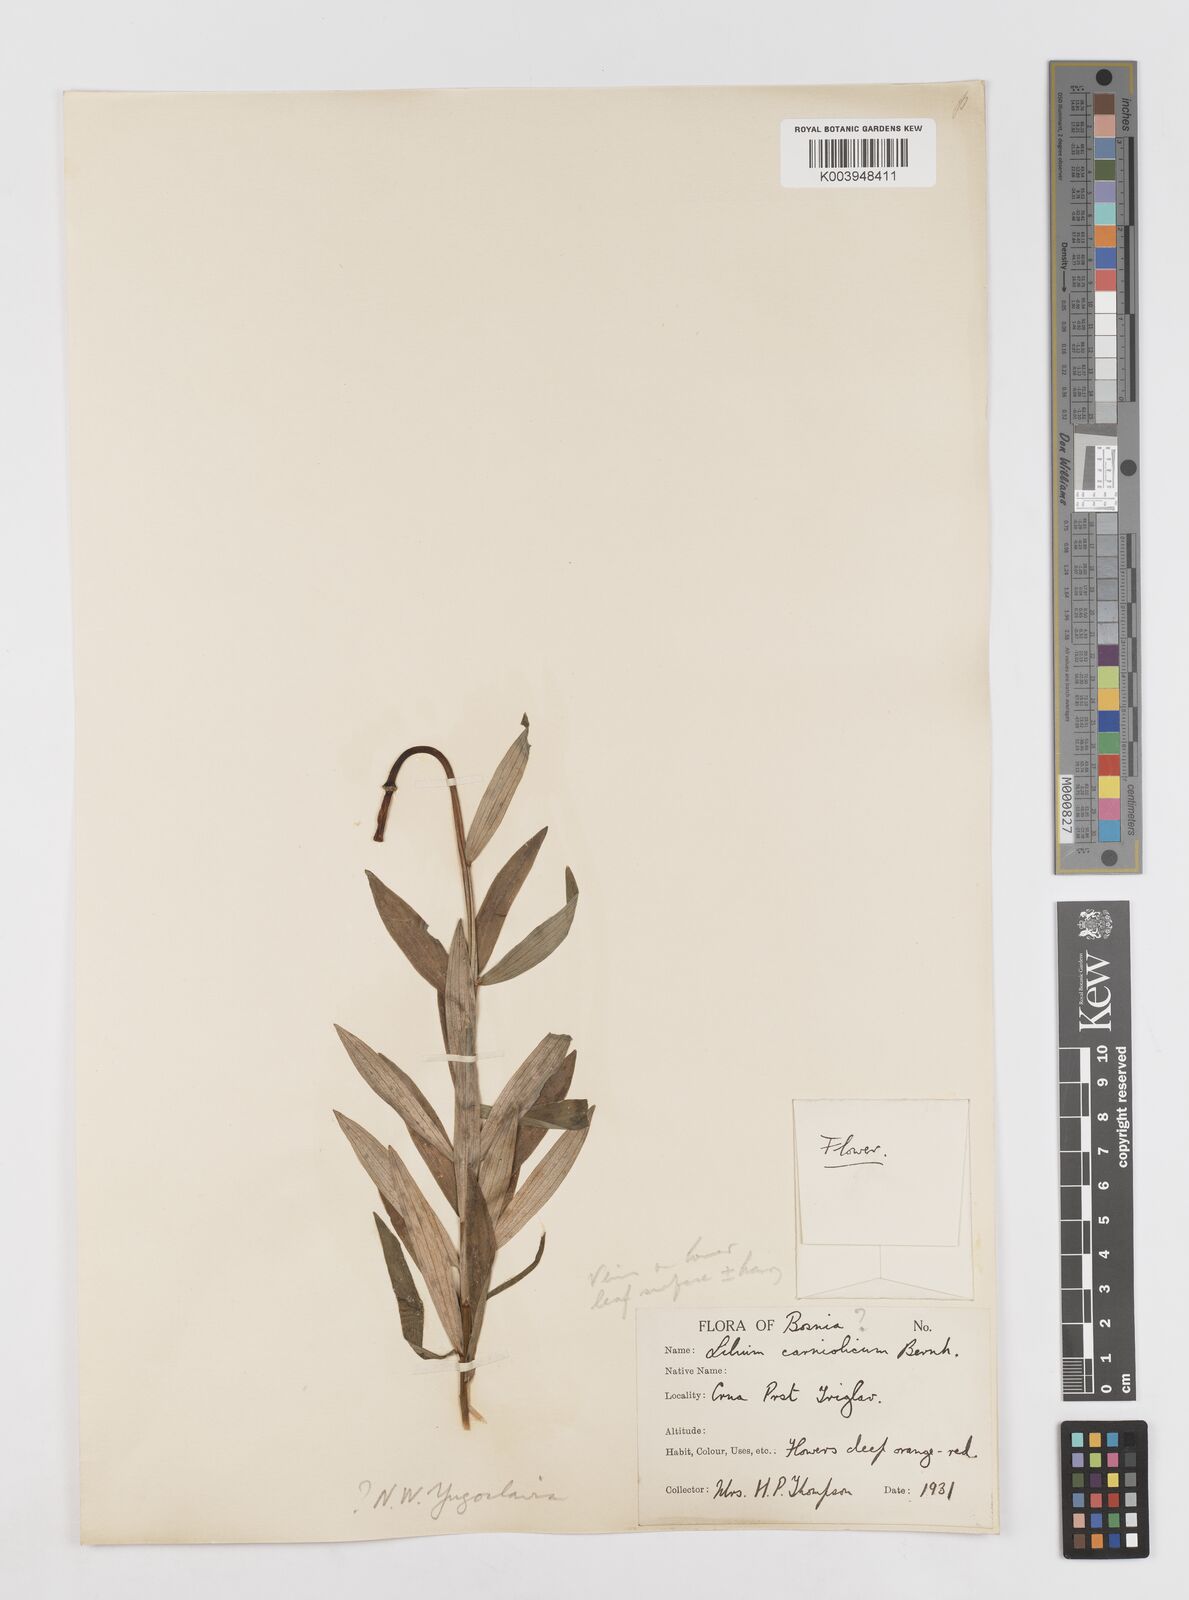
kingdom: Plantae
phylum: Tracheophyta
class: Liliopsida
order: Liliales
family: Liliaceae
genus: Lilium
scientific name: Lilium jankae
